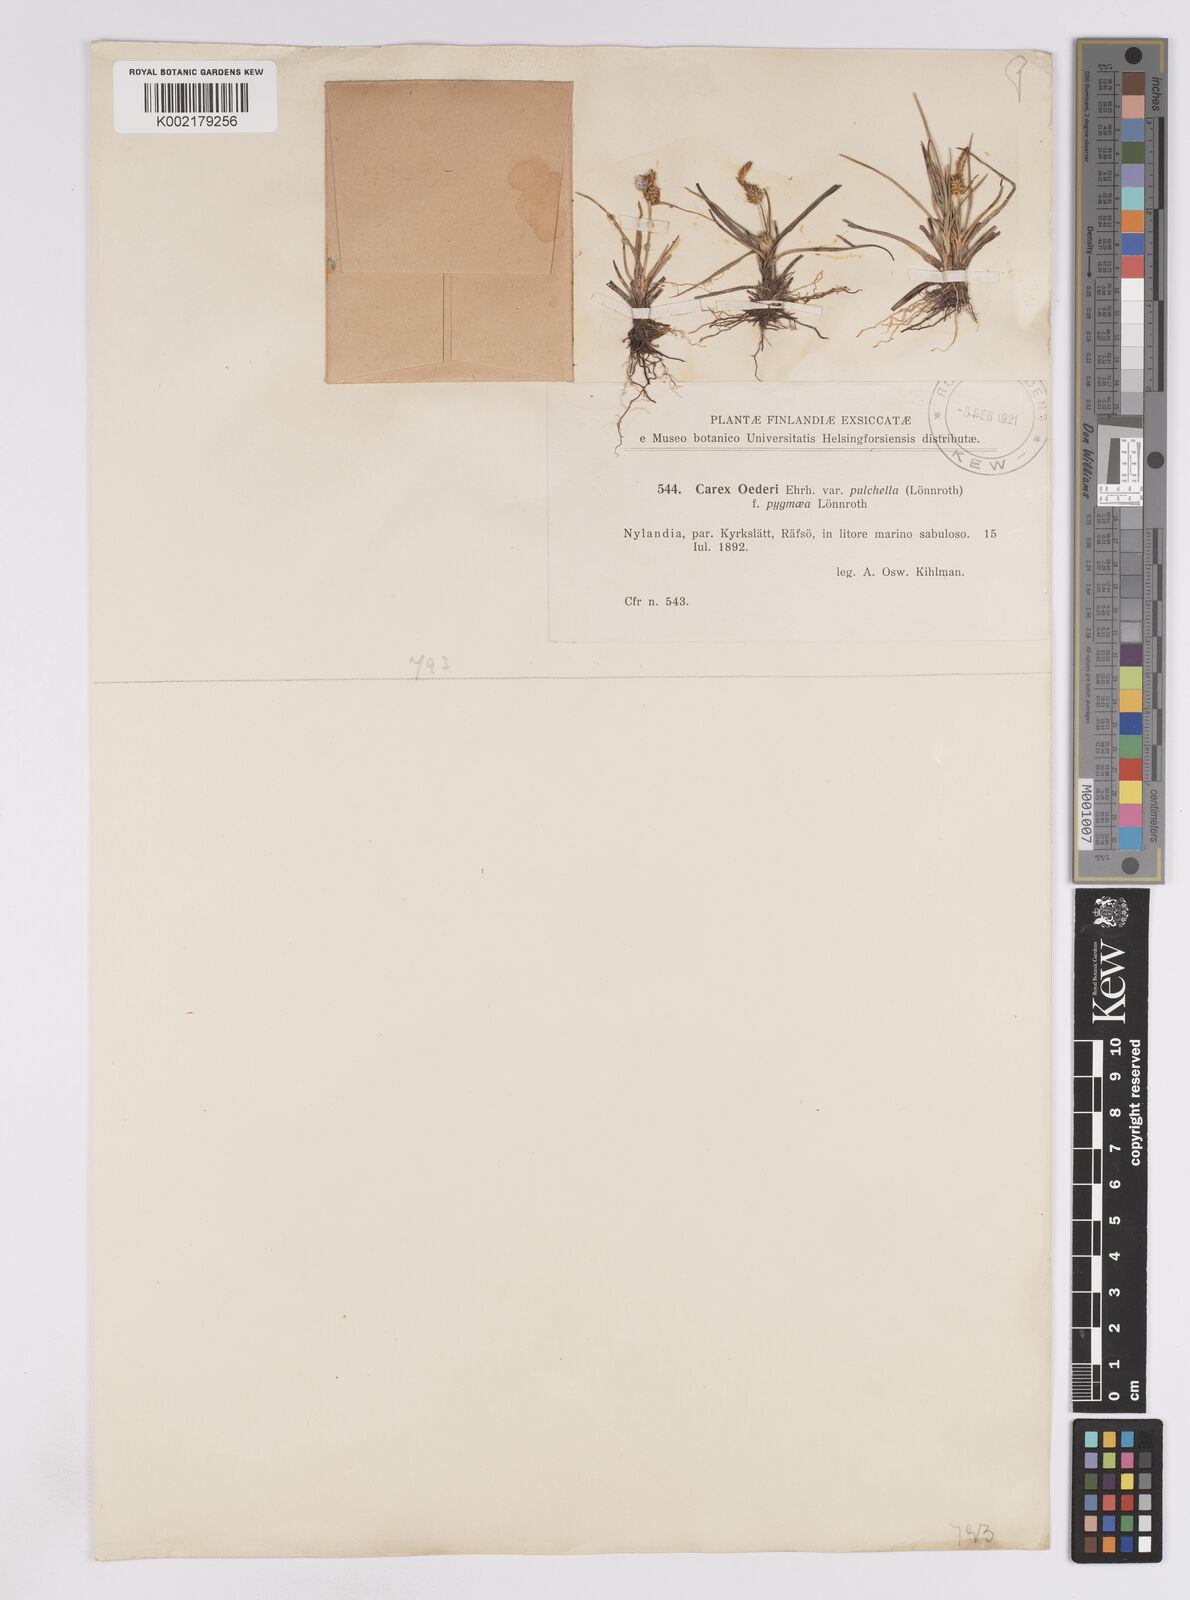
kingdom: Plantae
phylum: Tracheophyta
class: Liliopsida
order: Poales
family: Cyperaceae
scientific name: Cyperaceae
